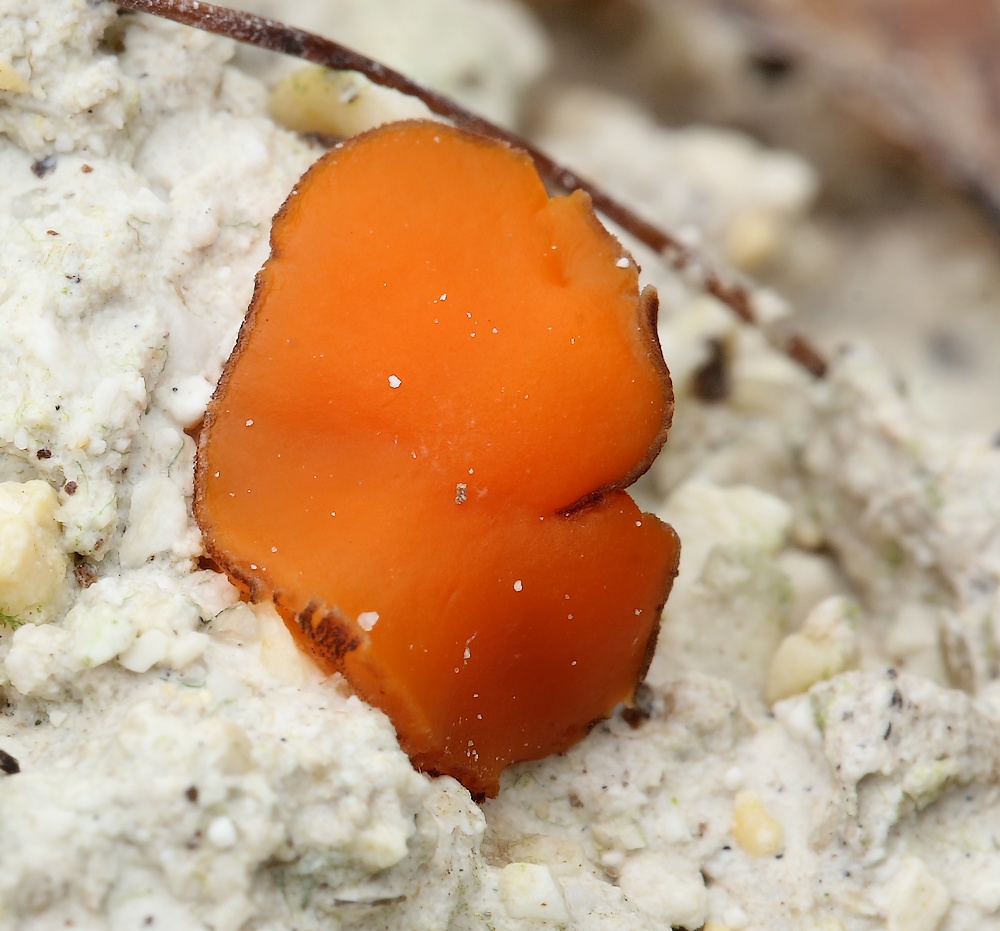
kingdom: Fungi
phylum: Ascomycota
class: Pezizomycetes
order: Pezizales
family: Pyronemataceae
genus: Melastiza
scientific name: Melastiza cornubiensis
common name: mørkrandet rødbæger
